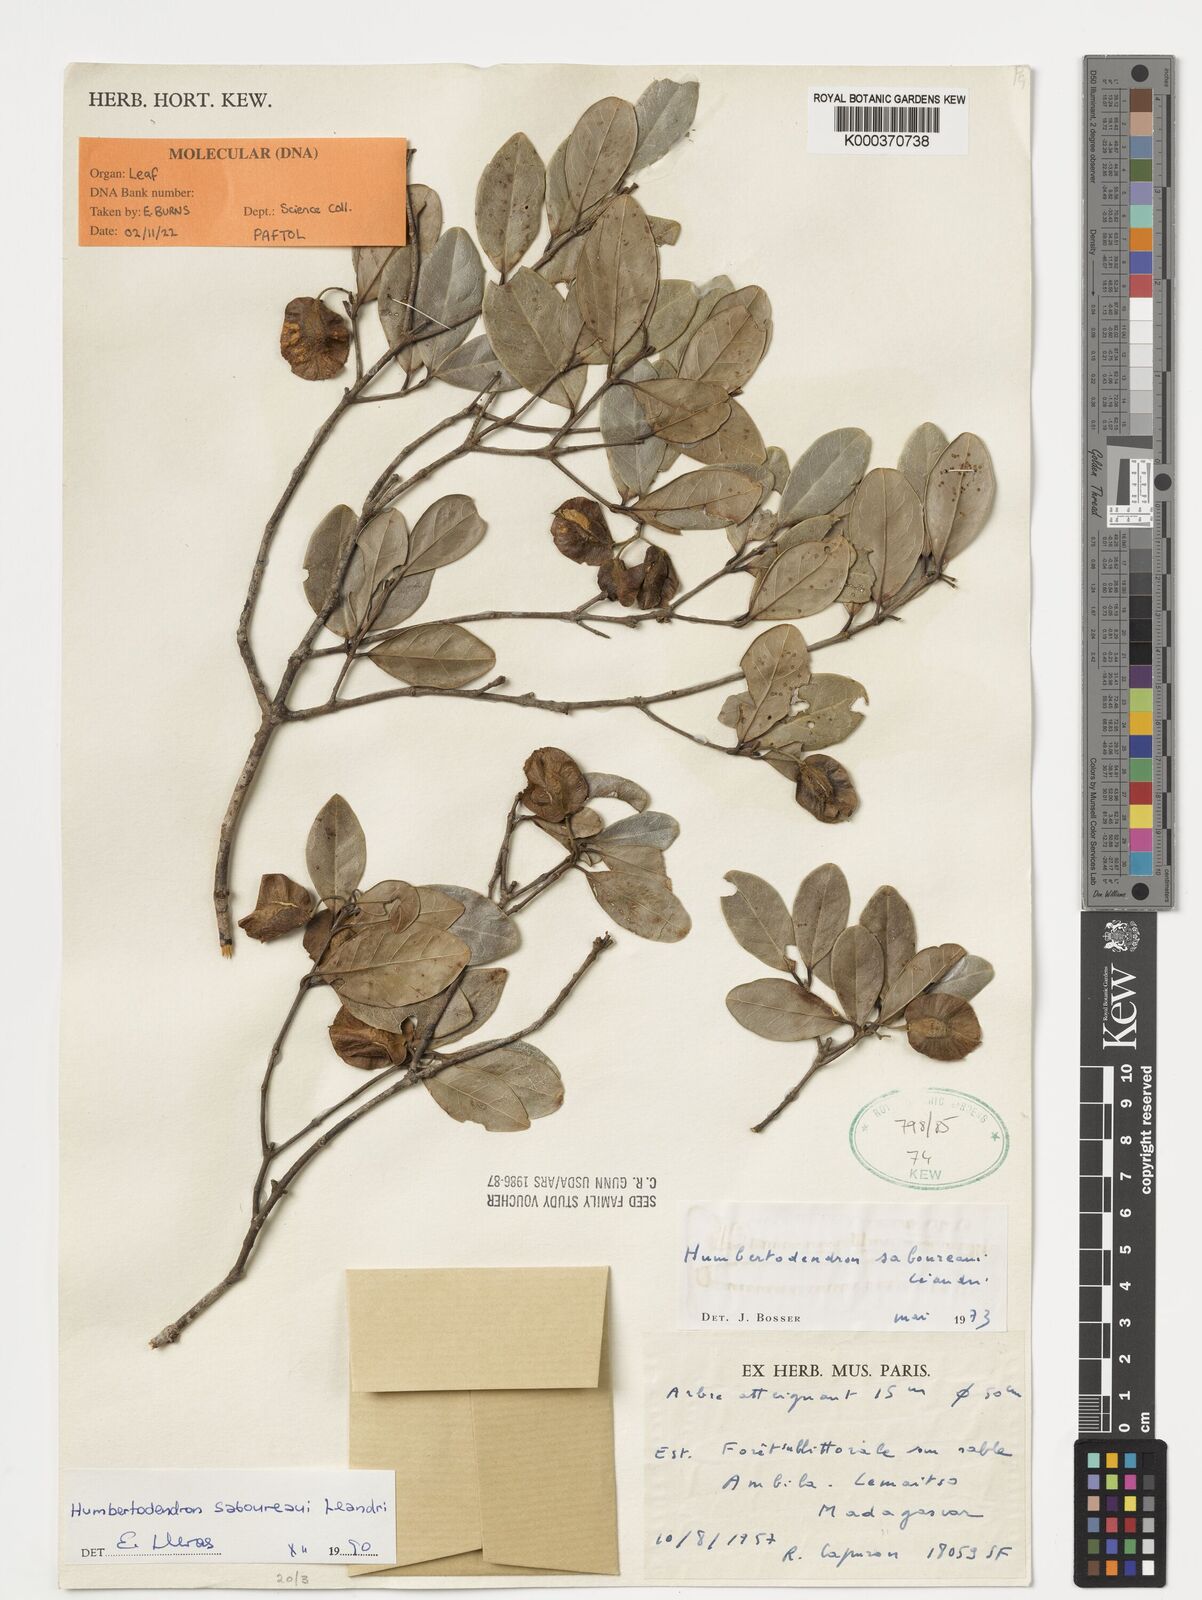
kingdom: Plantae
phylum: Tracheophyta
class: Magnoliopsida
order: Malpighiales
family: Trigoniaceae
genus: Humbertiodendron
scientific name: Humbertiodendron saboureaui
